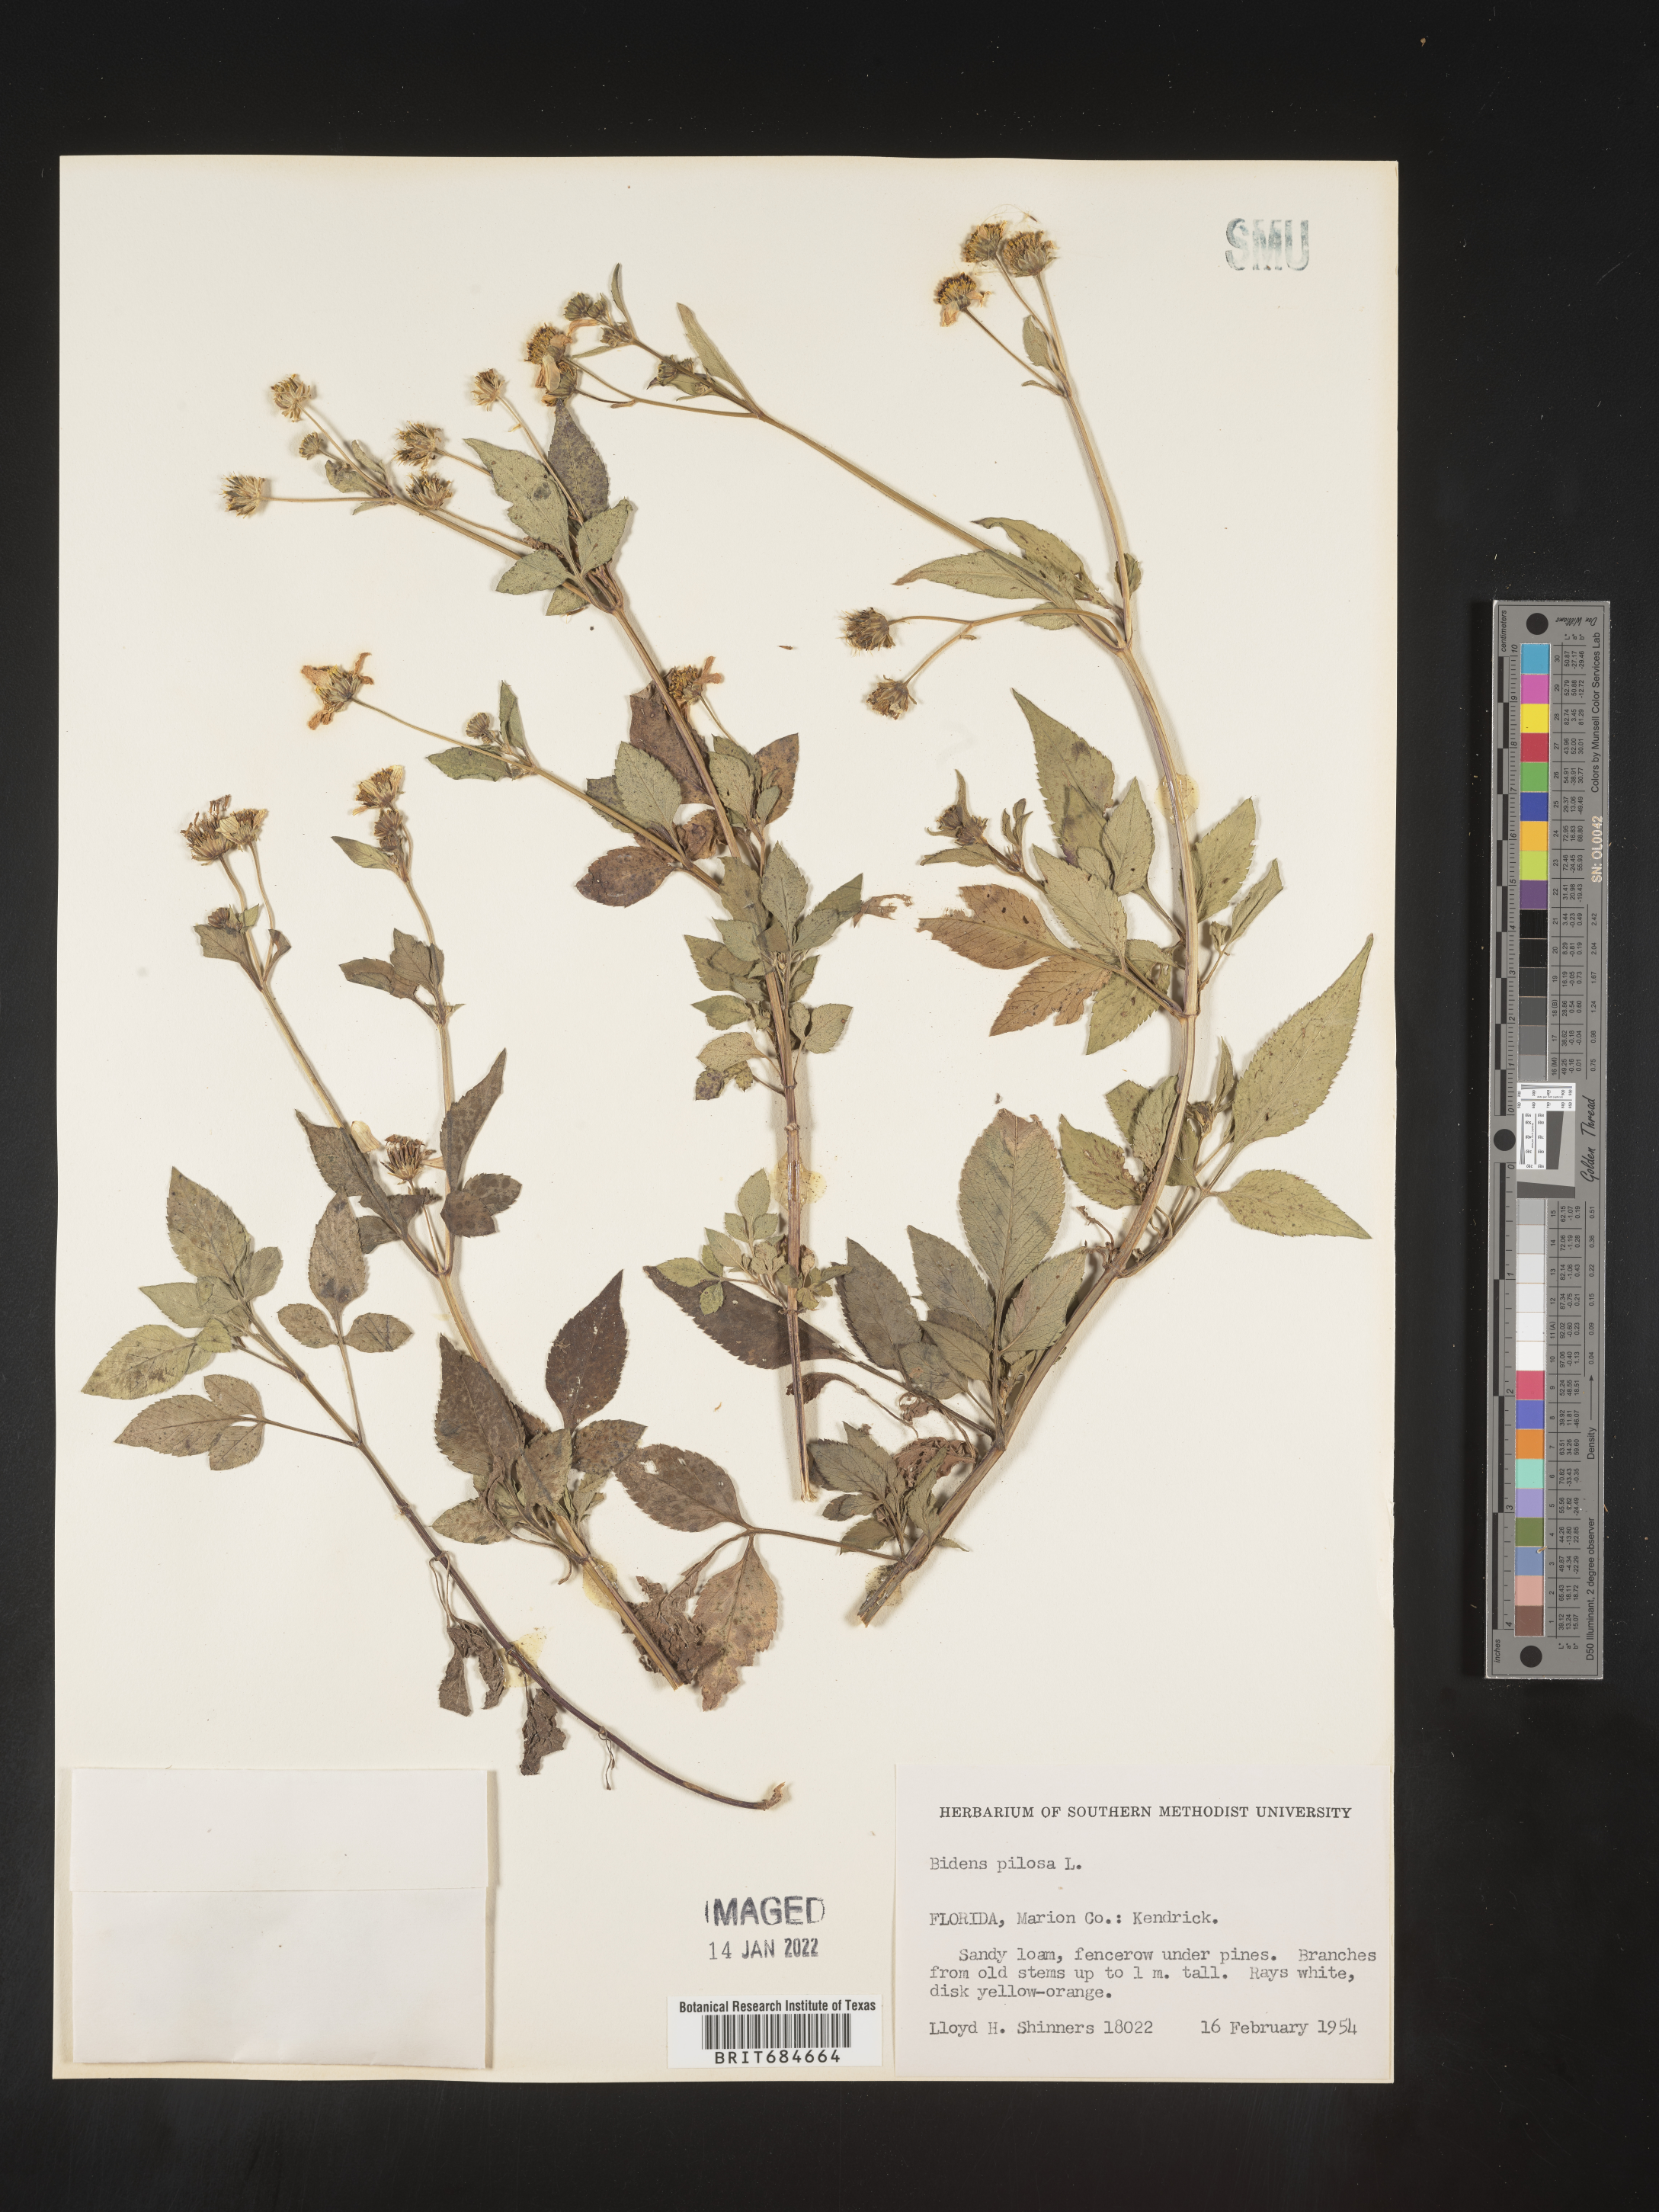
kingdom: Plantae
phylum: Tracheophyta
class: Magnoliopsida
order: Asterales
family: Asteraceae
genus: Bidens
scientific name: Bidens pilosa
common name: Black-jack
